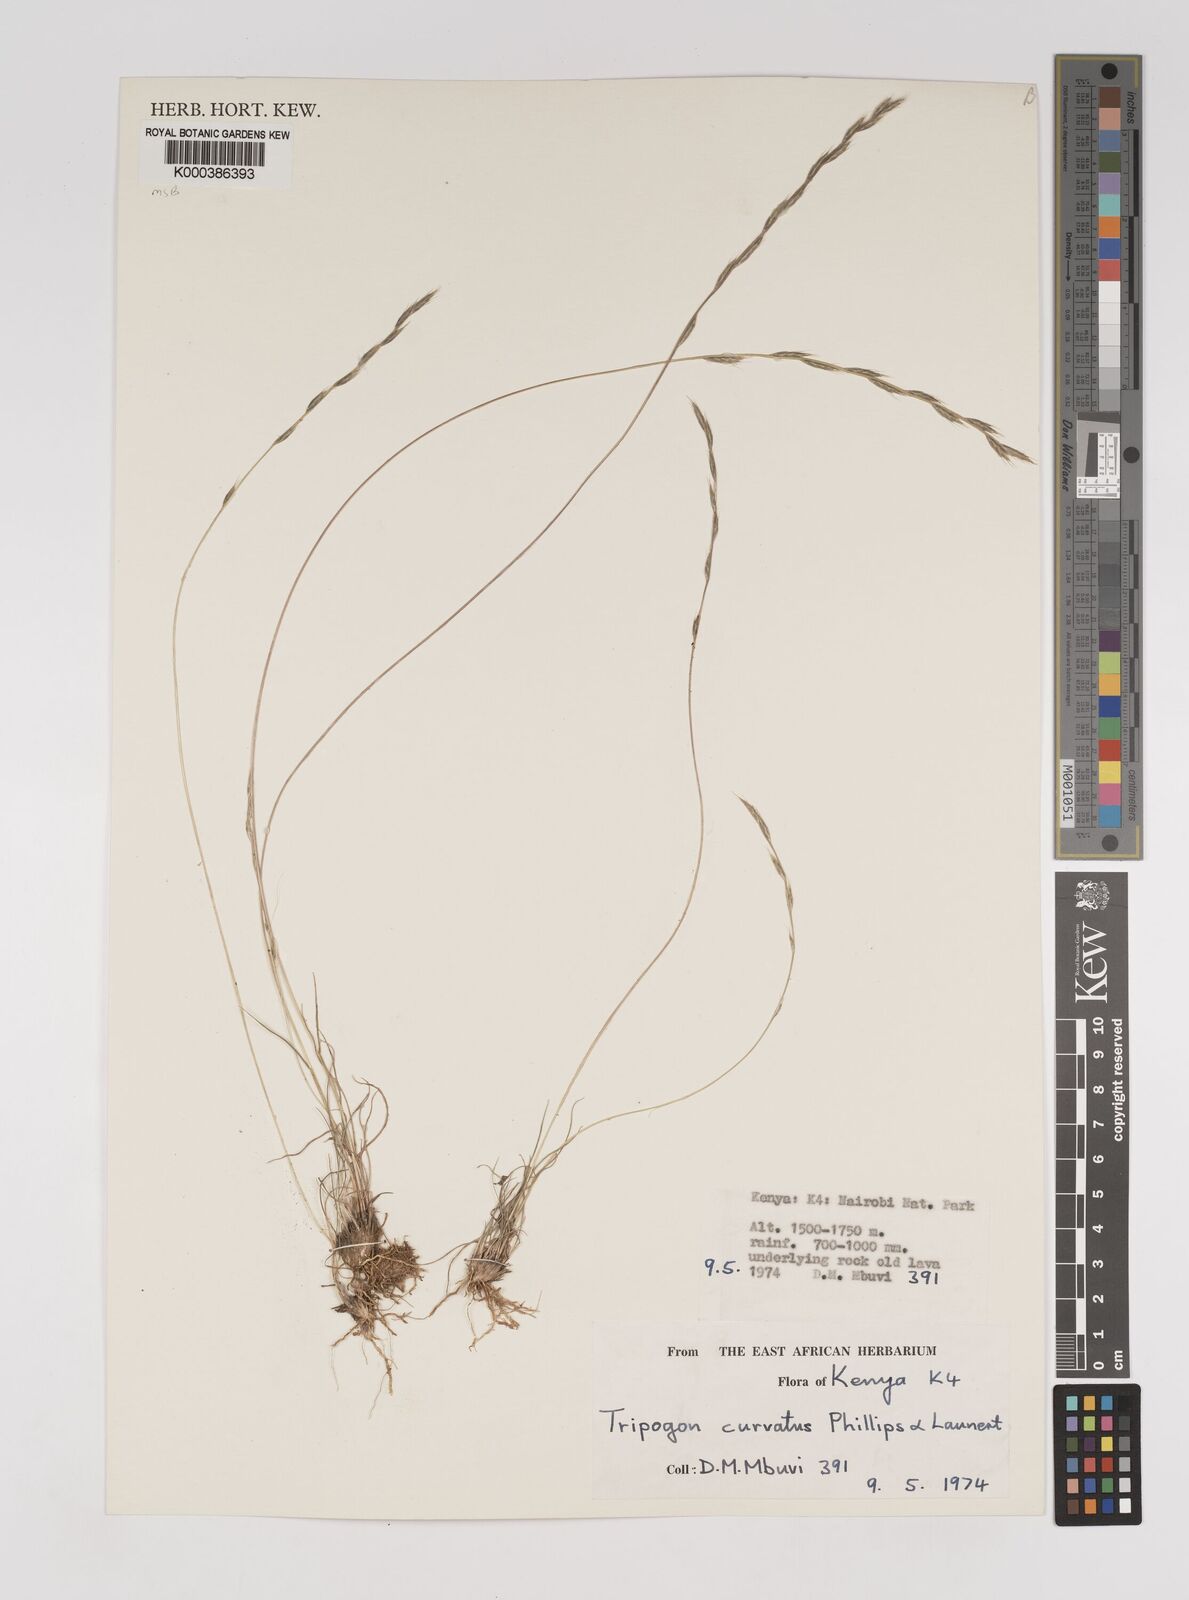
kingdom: Plantae
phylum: Tracheophyta
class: Liliopsida
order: Poales
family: Poaceae
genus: Tripogon
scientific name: Tripogon curvatus
